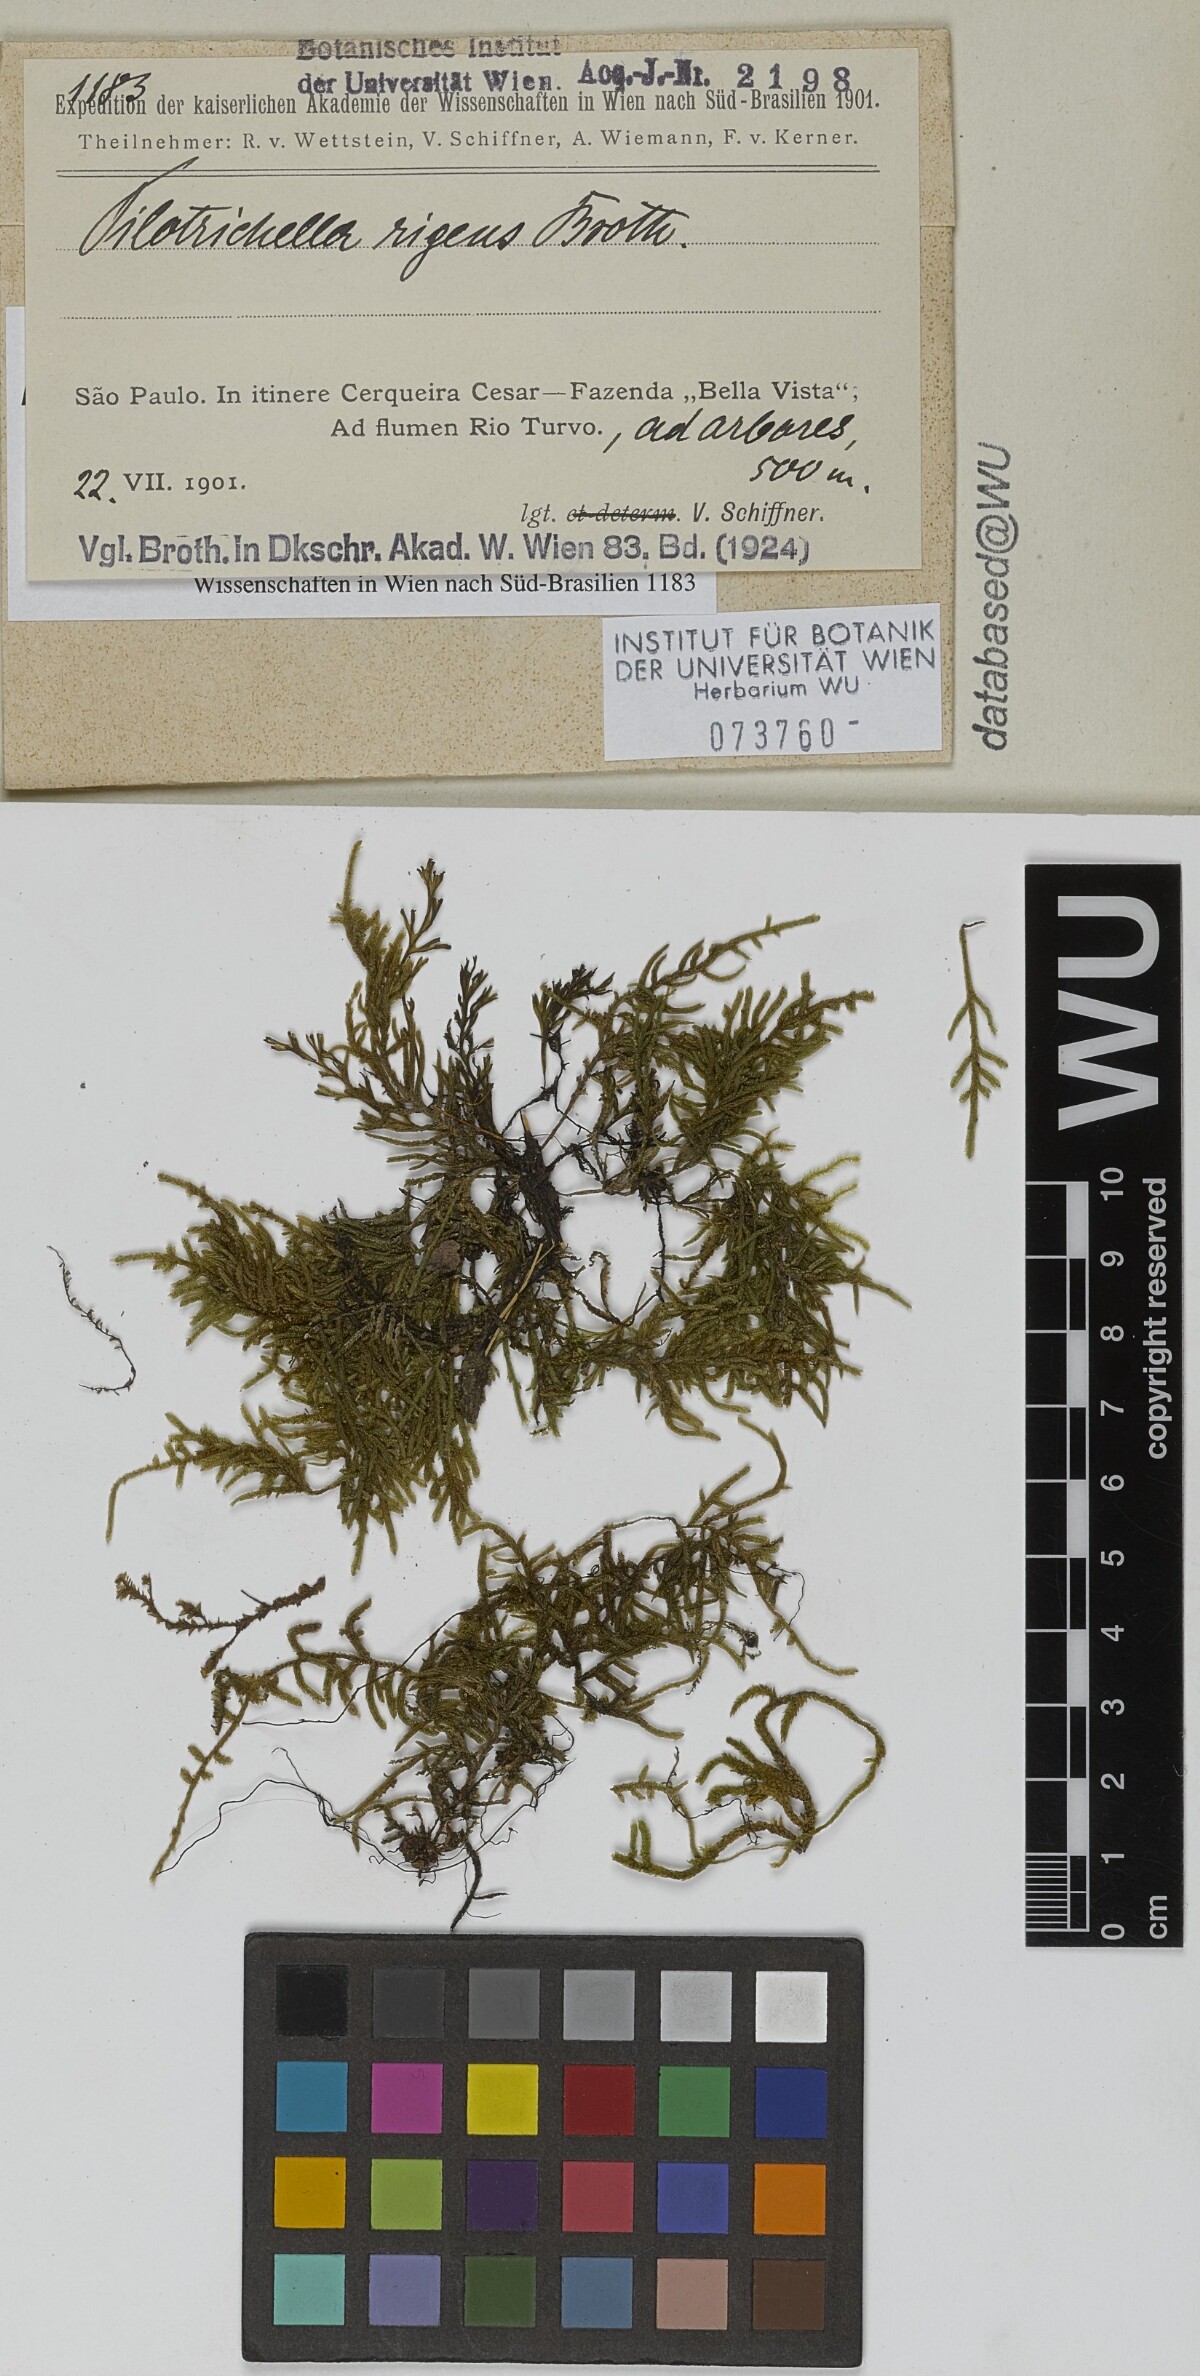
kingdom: Plantae
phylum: Bryophyta
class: Bryopsida
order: Hypnales
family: Orthostichellaceae
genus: Orthostichella
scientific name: Orthostichella pachygastrella
